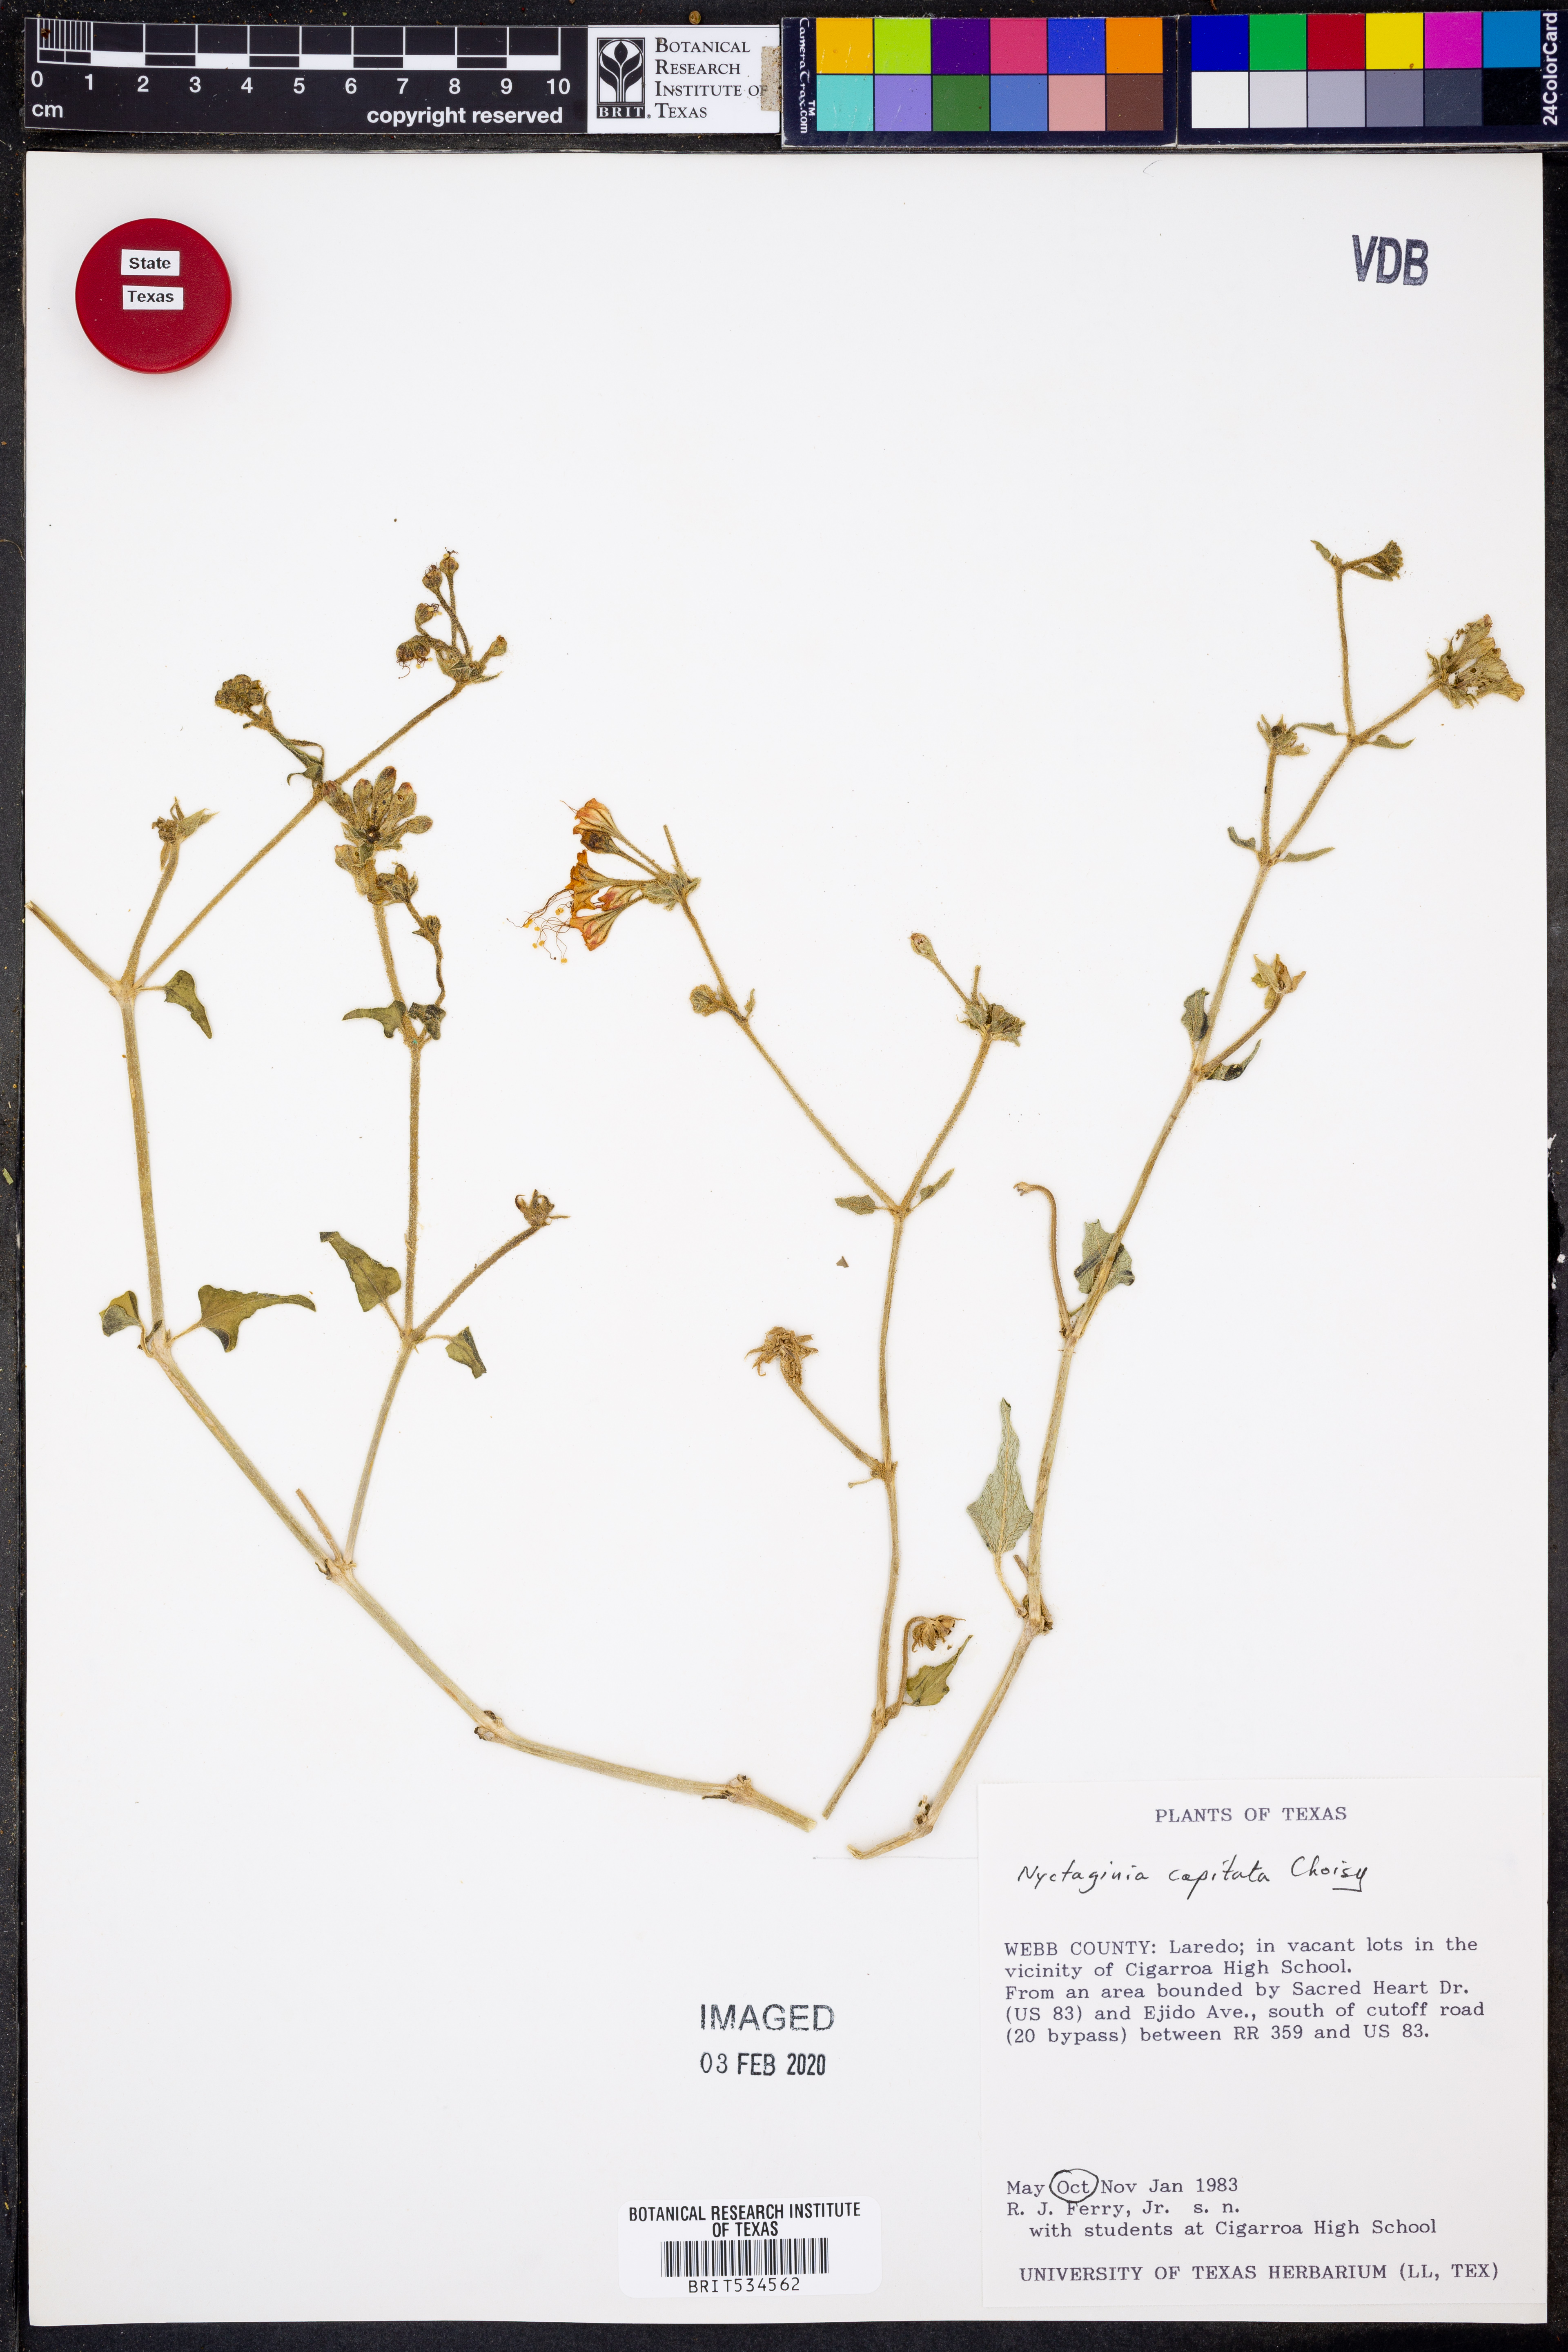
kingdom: Plantae
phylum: Tracheophyta
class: Magnoliopsida
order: Caryophyllales
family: Nyctaginaceae
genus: Nyctaginia
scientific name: Nyctaginia capitata
